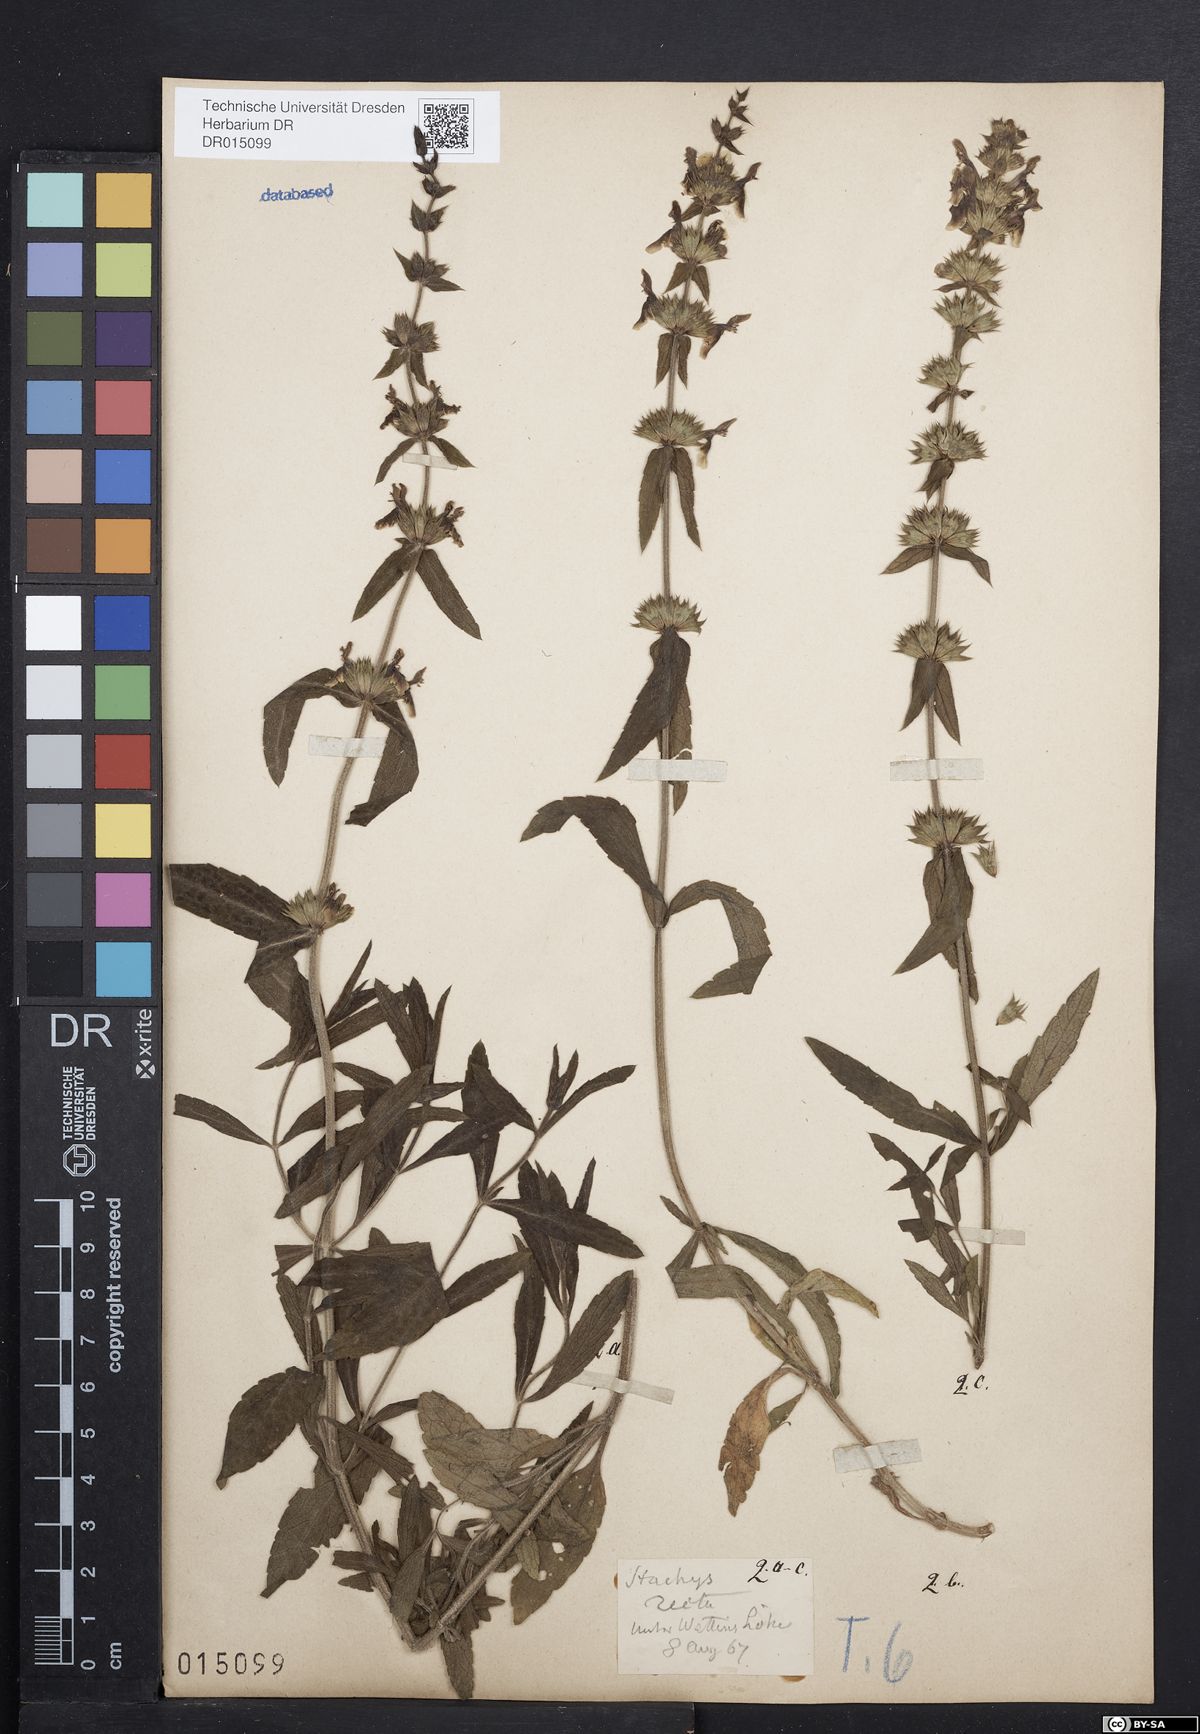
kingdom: Plantae
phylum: Tracheophyta
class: Magnoliopsida
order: Lamiales
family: Lamiaceae
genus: Stachys
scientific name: Stachys recta
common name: Perennial yellow-woundwort
